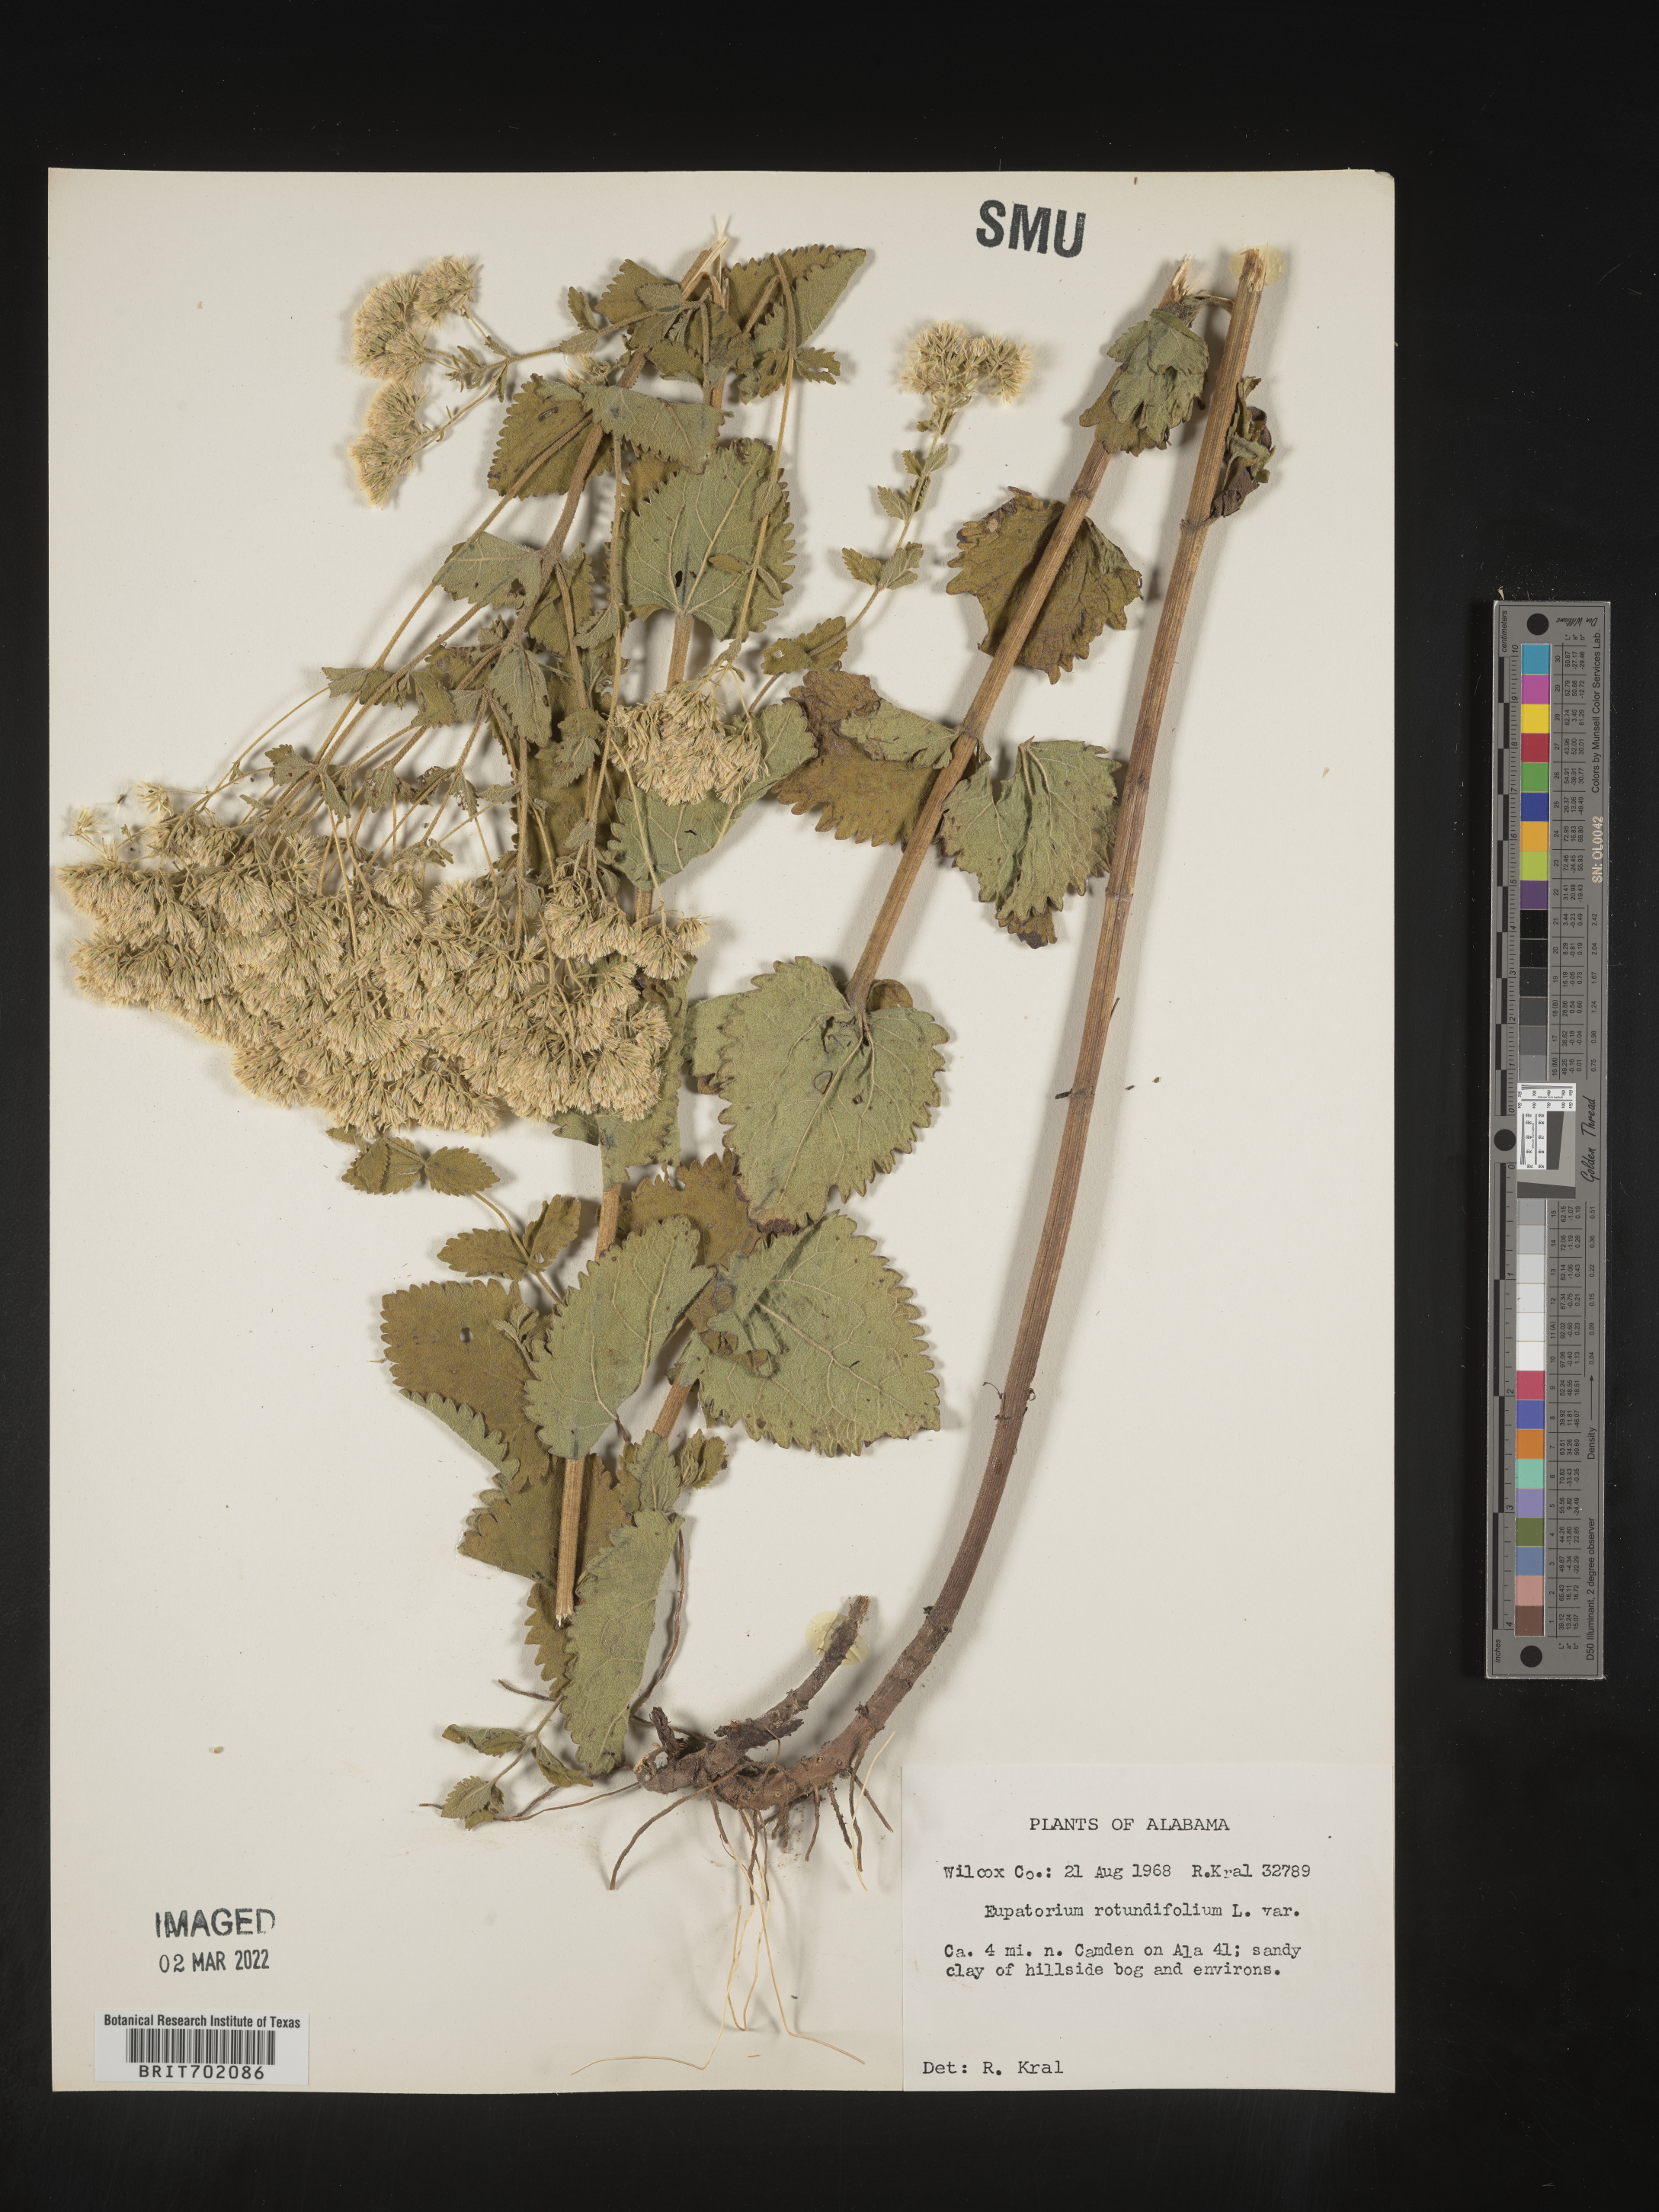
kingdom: Plantae
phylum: Tracheophyta
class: Magnoliopsida
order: Asterales
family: Asteraceae
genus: Eupatorium
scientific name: Eupatorium rotundifolium
